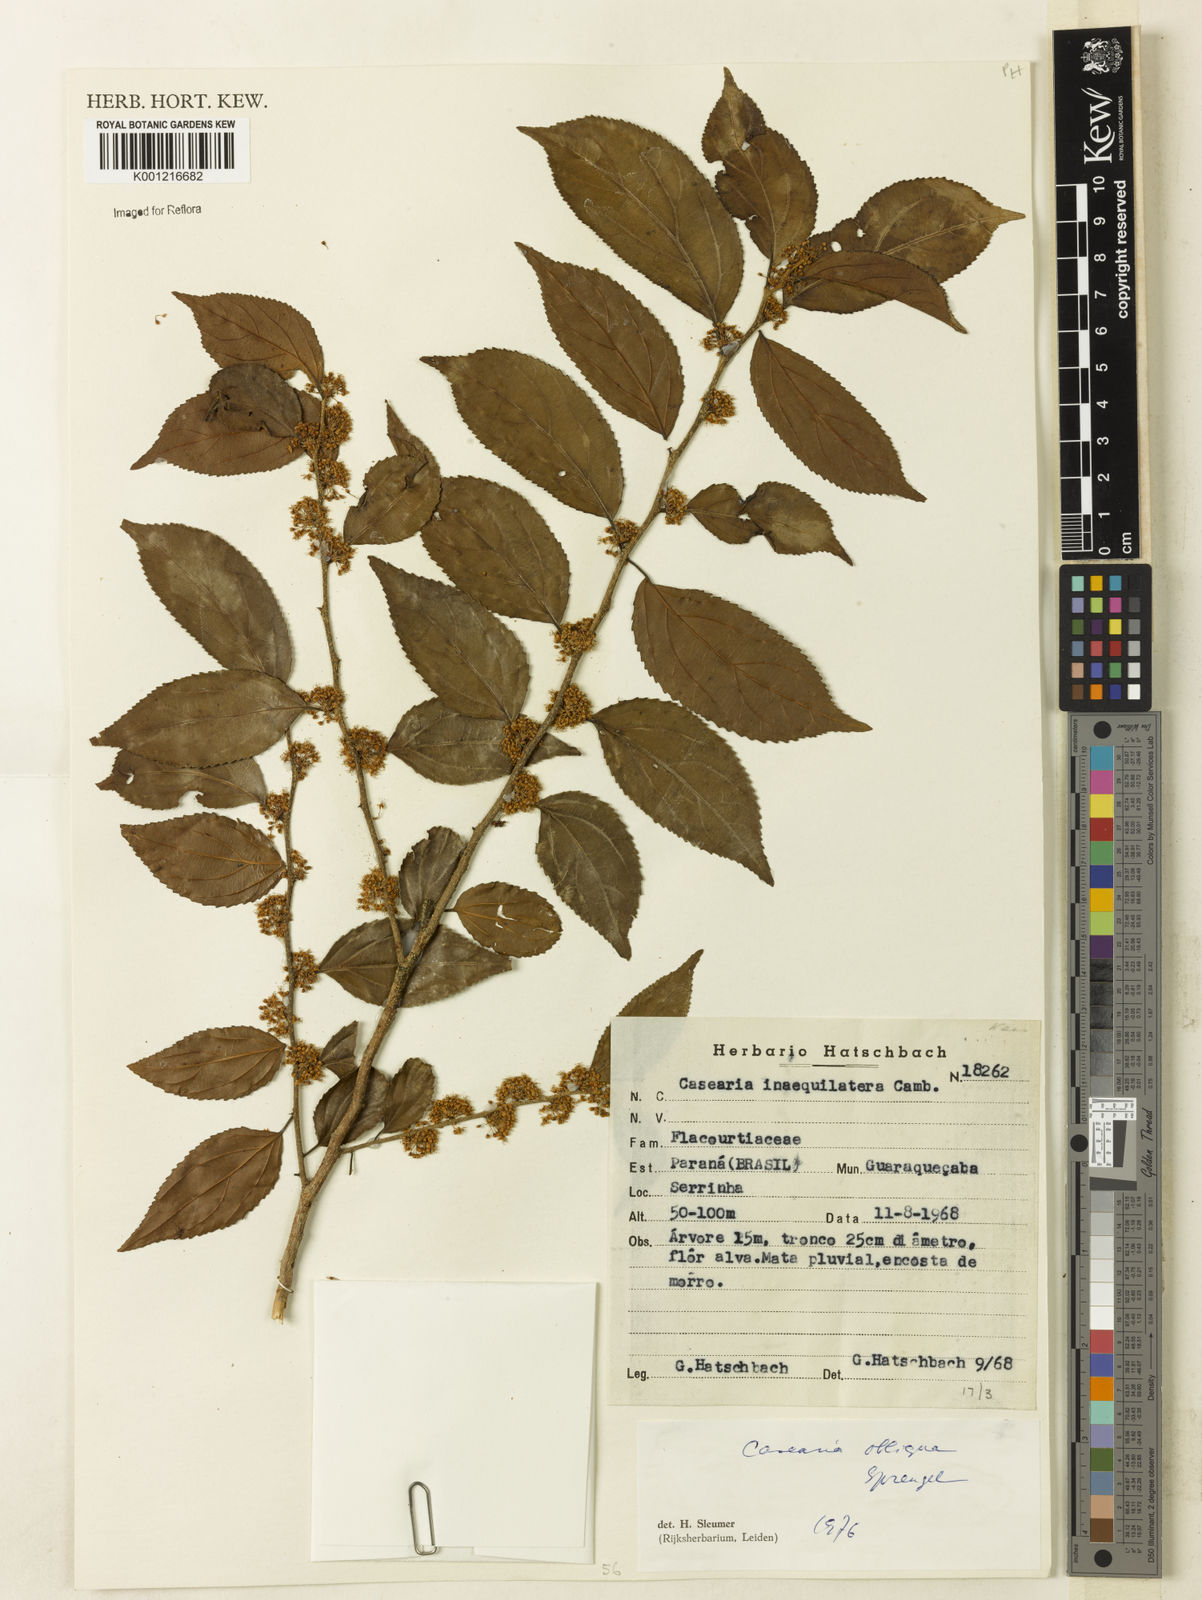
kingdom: Plantae
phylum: Tracheophyta
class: Magnoliopsida
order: Malpighiales
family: Salicaceae
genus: Casearia
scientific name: Casearia obliqua
